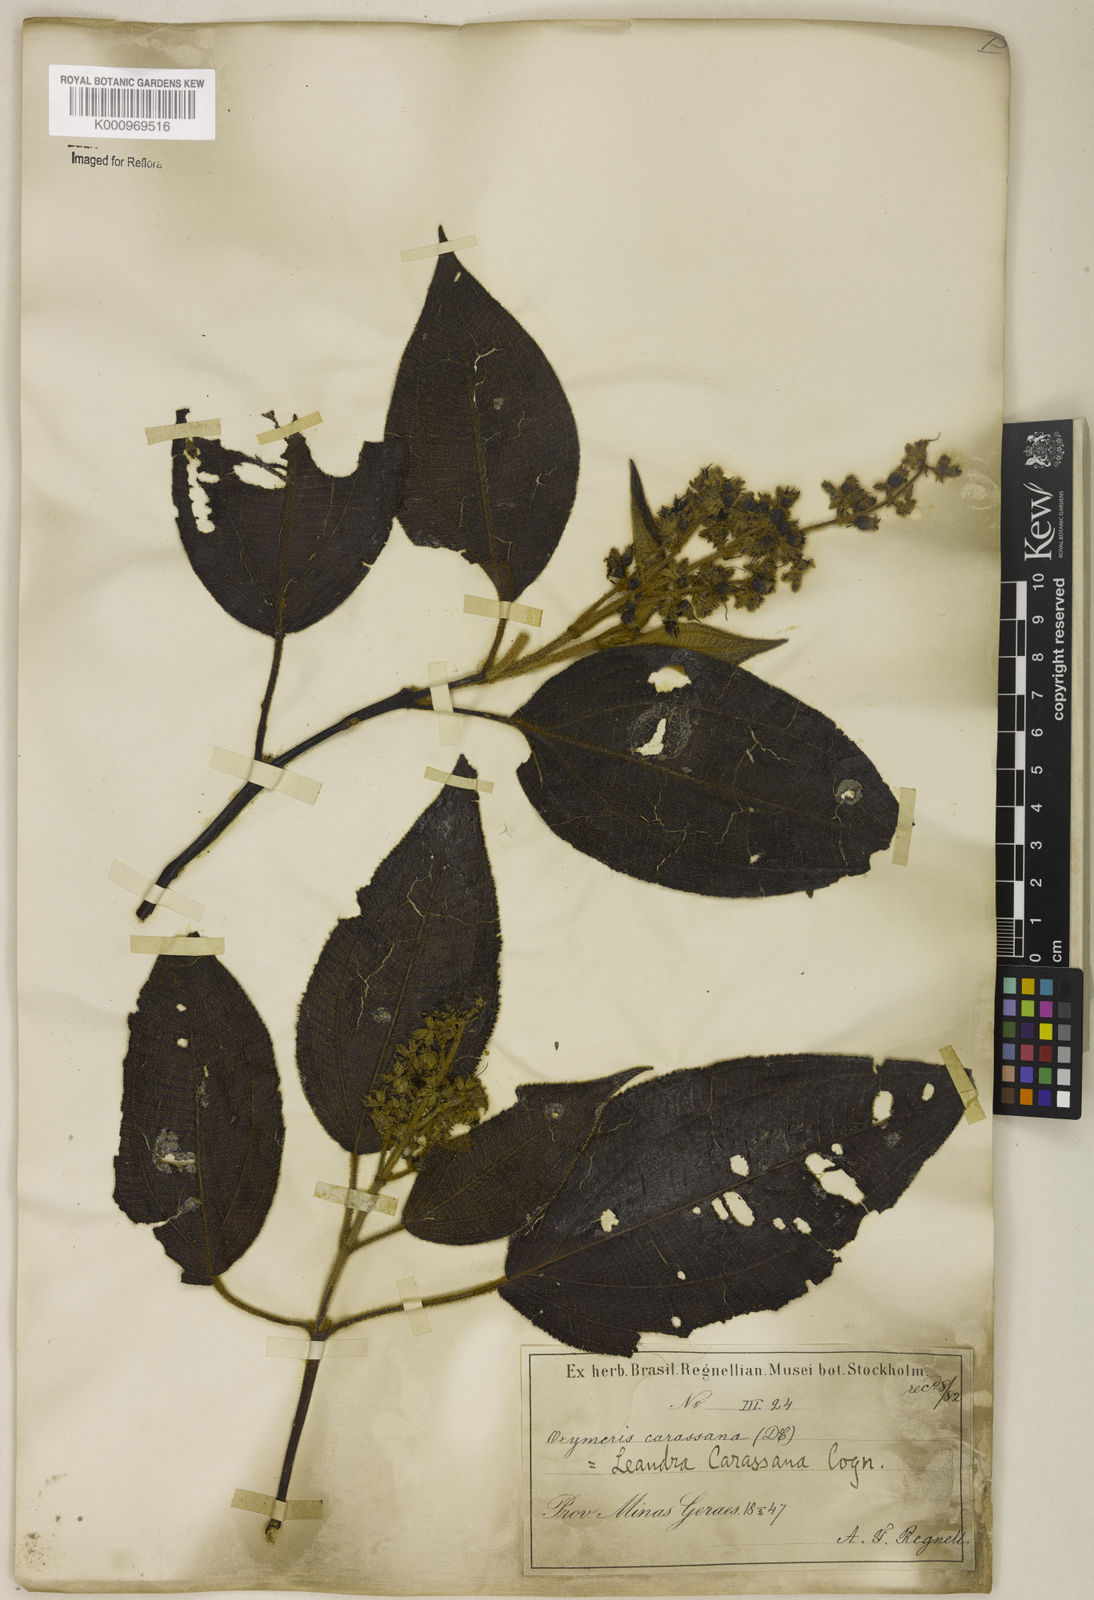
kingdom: Plantae
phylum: Tracheophyta
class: Magnoliopsida
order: Myrtales
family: Melastomataceae
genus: Miconia
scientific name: Miconia sublanata
